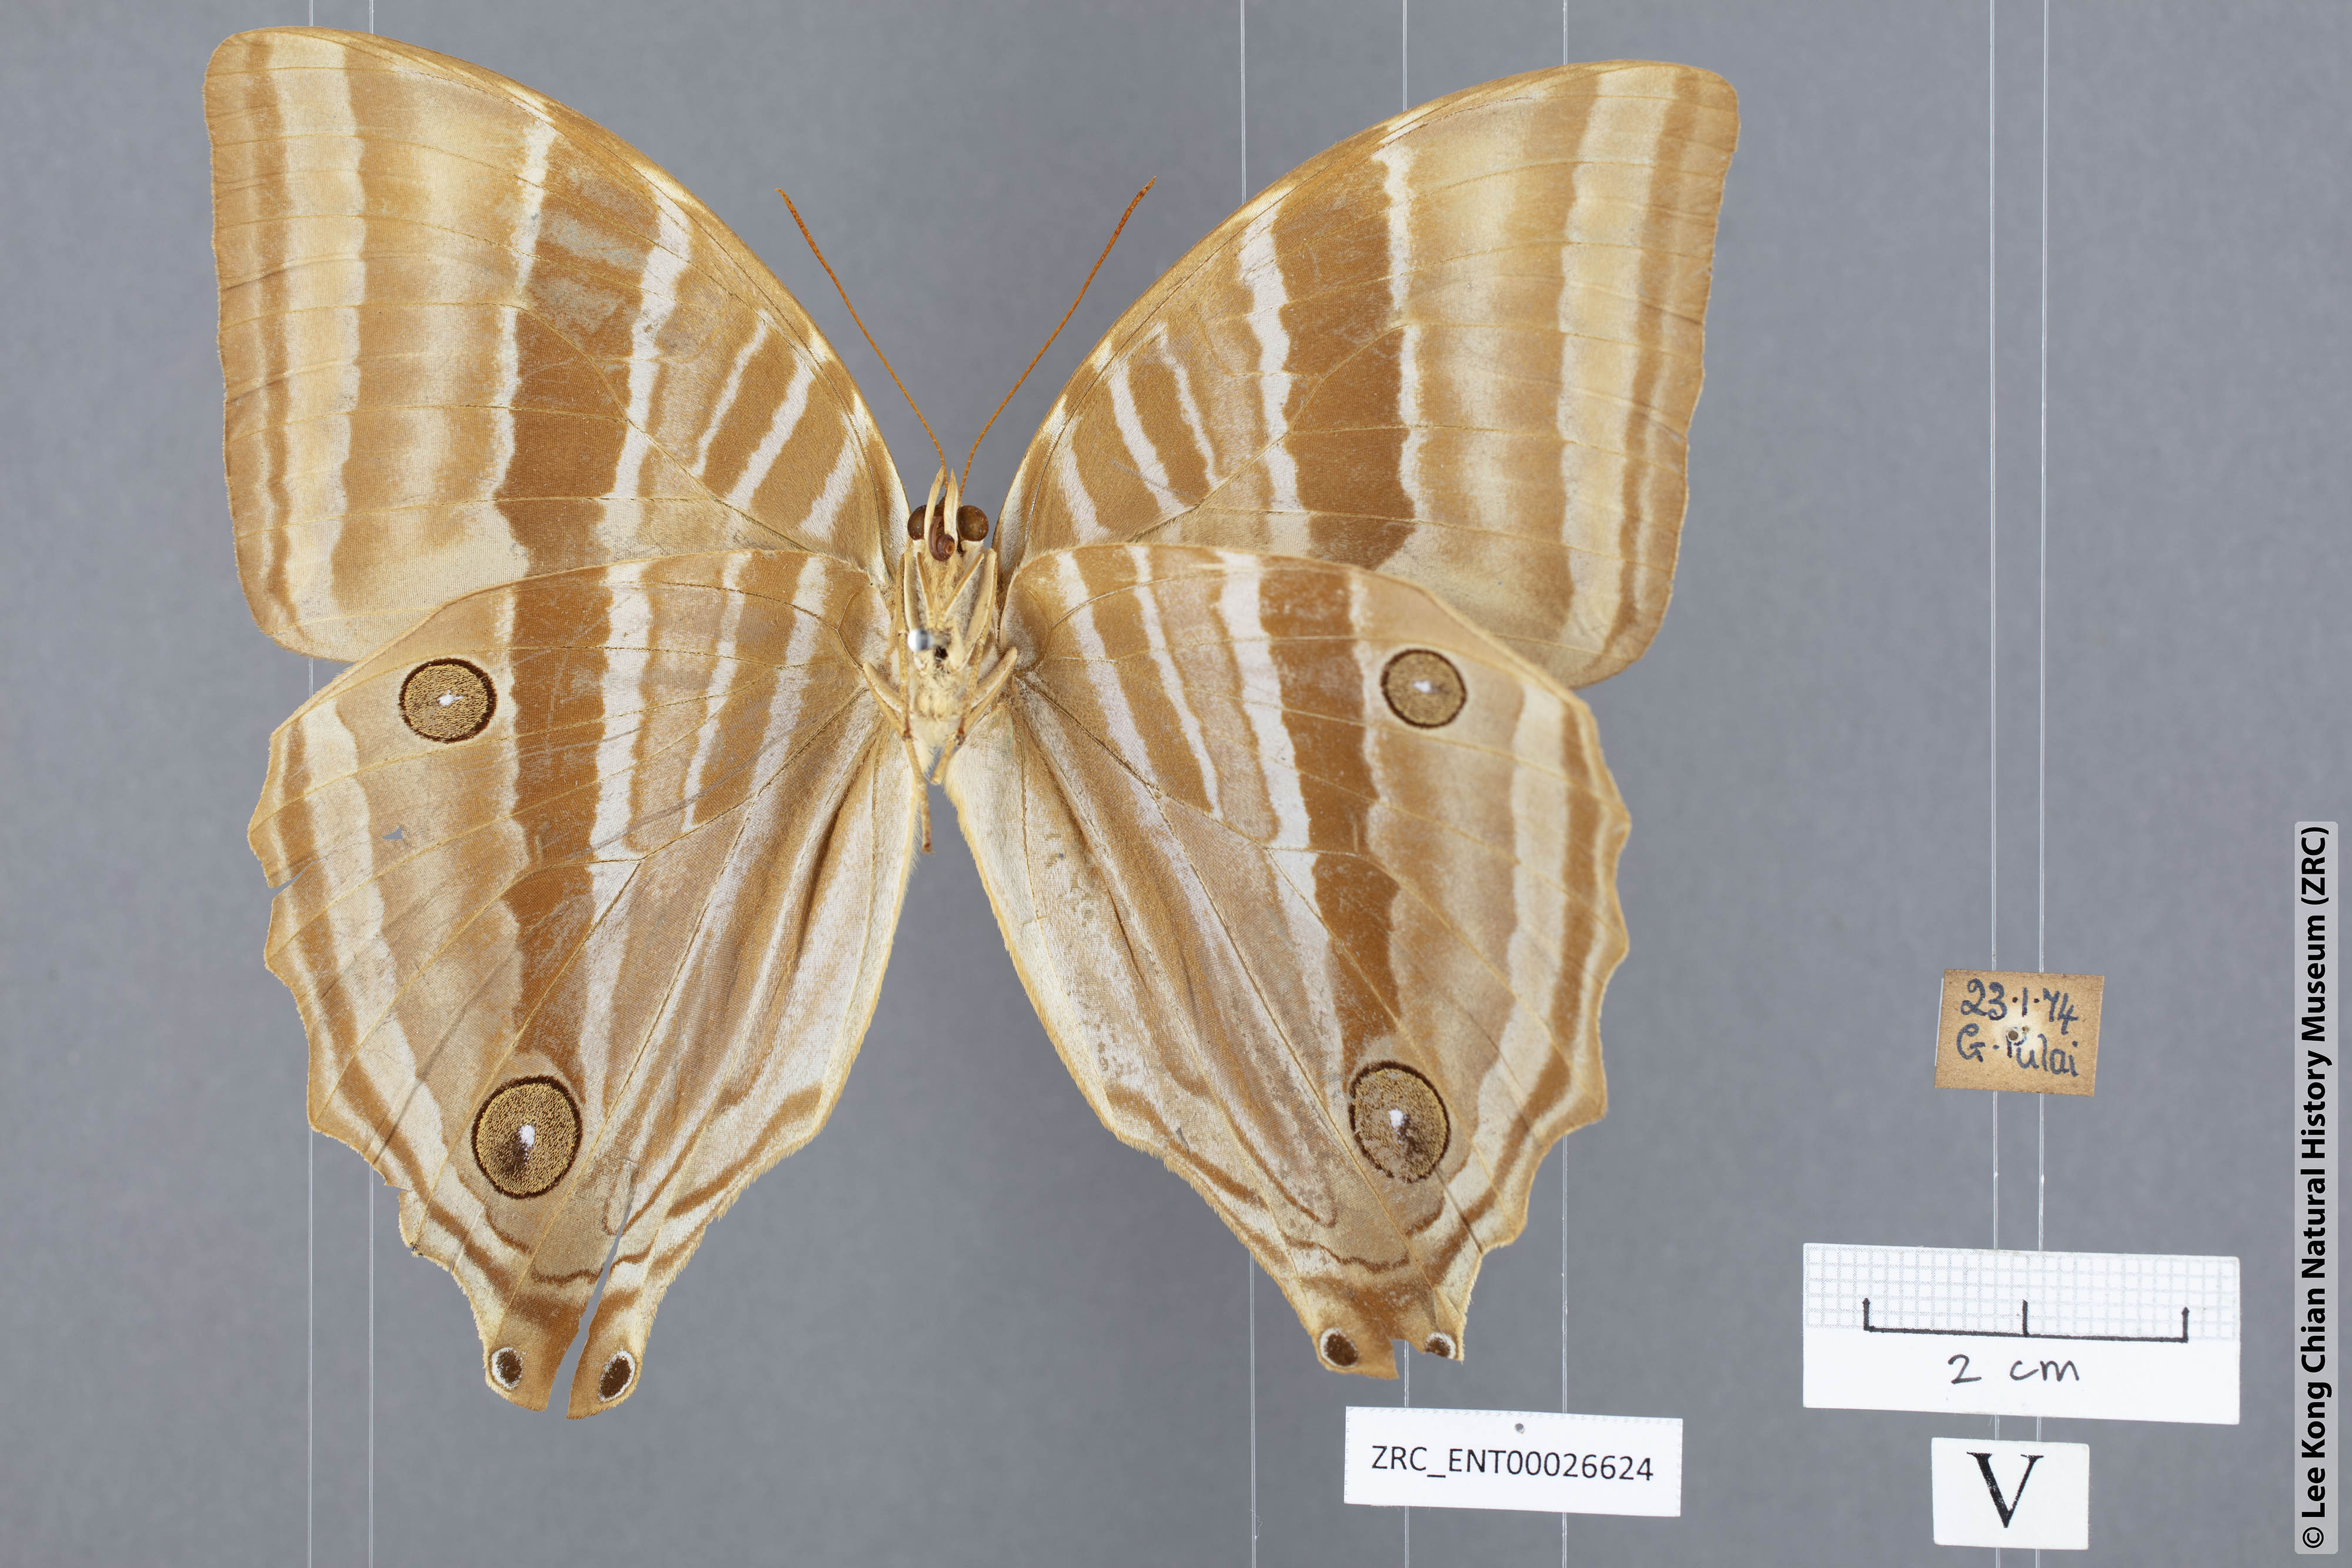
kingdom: Animalia
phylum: Arthropoda
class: Insecta
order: Lepidoptera
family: Nymphalidae
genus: Amathusia
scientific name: Amathusia phidippus
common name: Palm king
